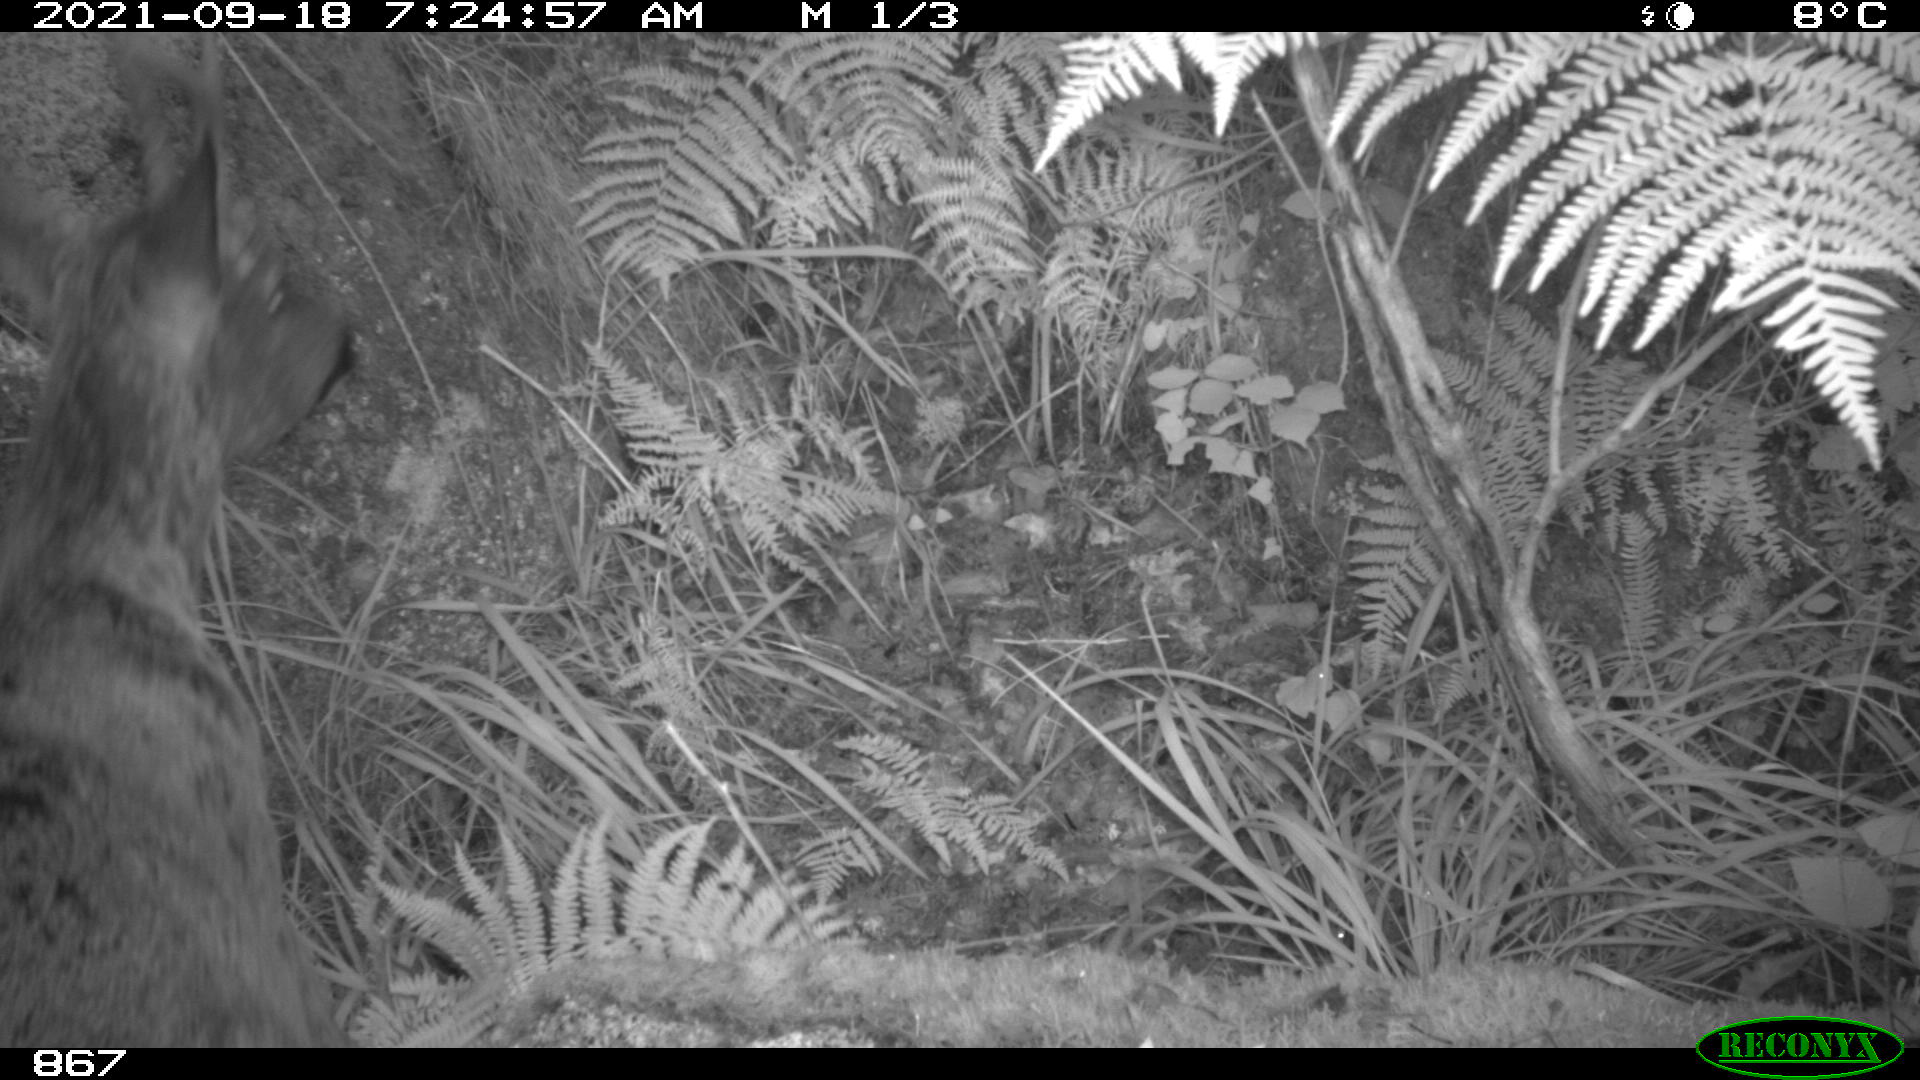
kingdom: Animalia
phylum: Chordata
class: Mammalia
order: Artiodactyla
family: Cervidae
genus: Capreolus
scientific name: Capreolus capreolus
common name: Western roe deer
